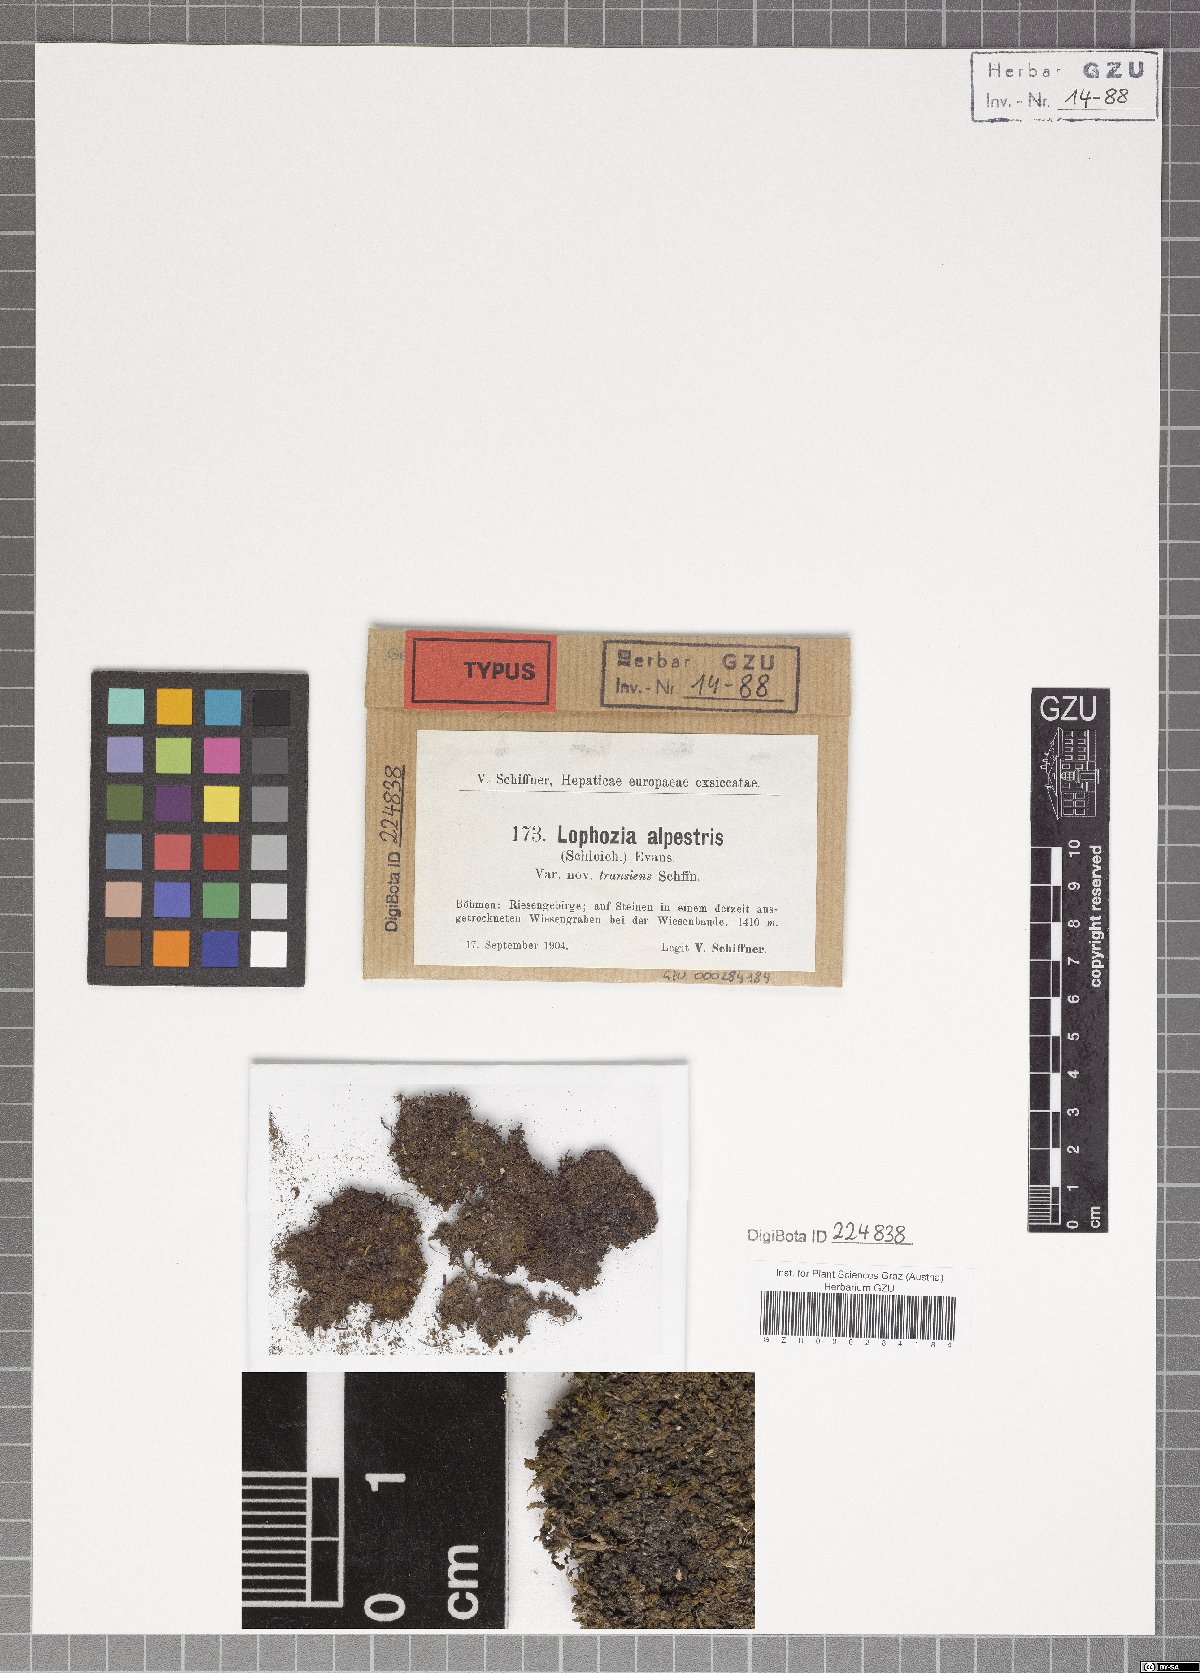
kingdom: Plantae
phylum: Marchantiophyta
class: Jungermanniopsida
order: Jungermanniales
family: Jungermanniaceae
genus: Mesoptychia
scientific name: Mesoptychia collaris
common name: Collared notchwort
